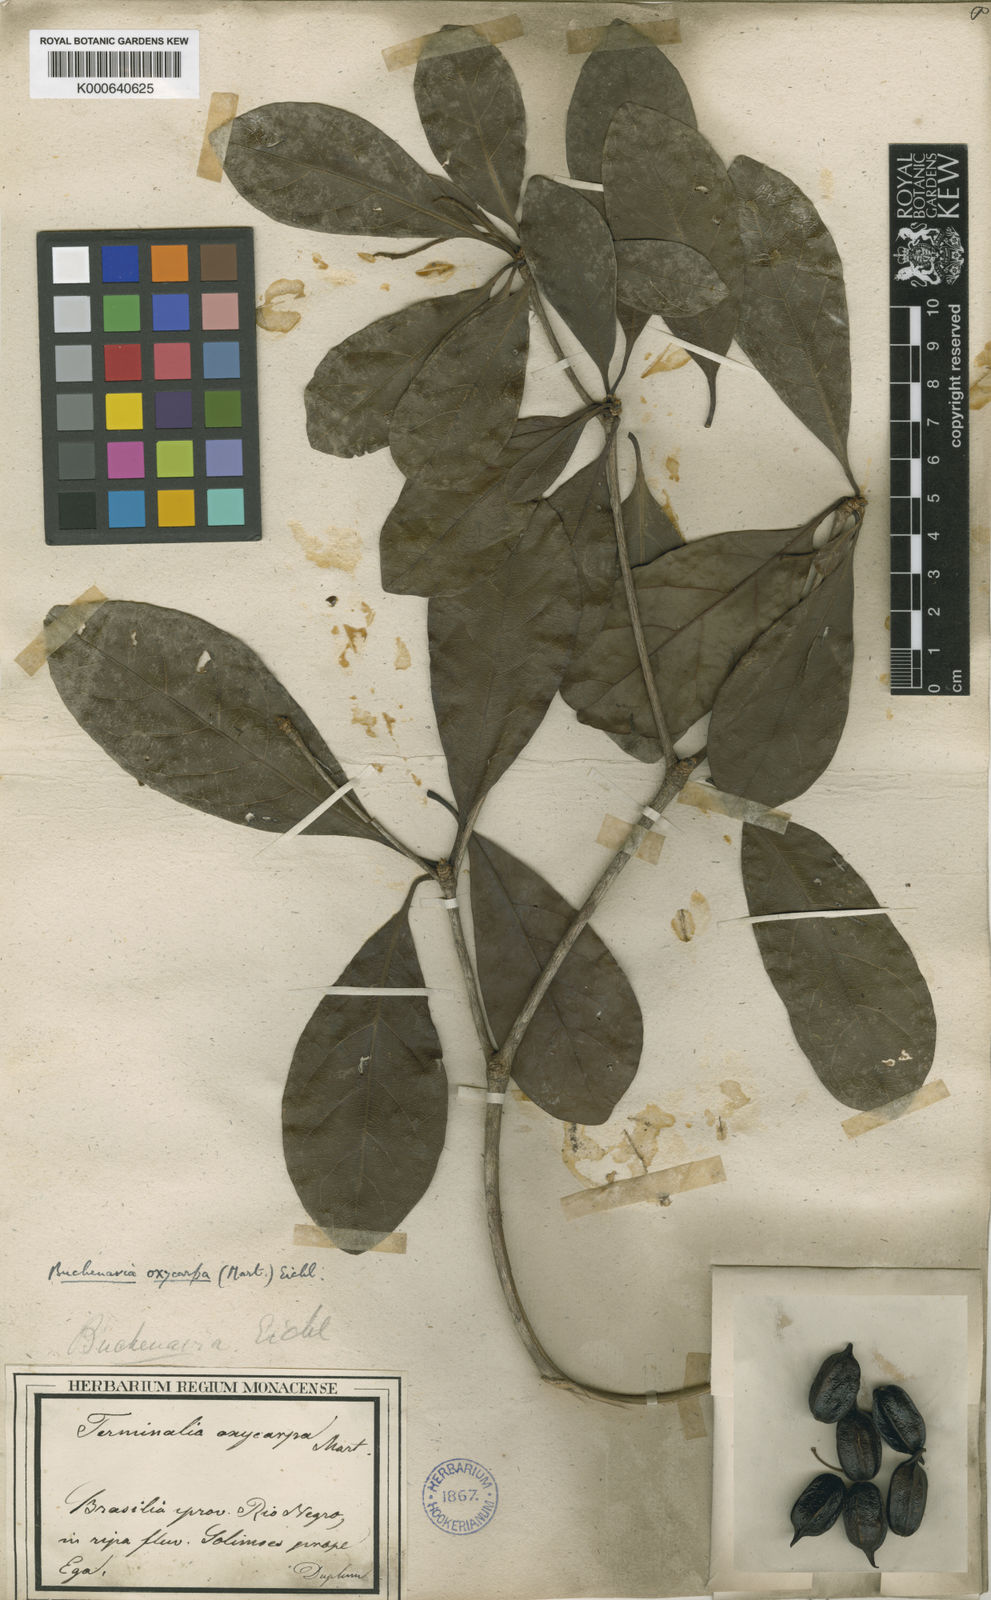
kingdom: Plantae
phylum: Tracheophyta
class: Magnoliopsida
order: Myrtales
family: Combretaceae
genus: Terminalia
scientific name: Terminalia oxycarpa
